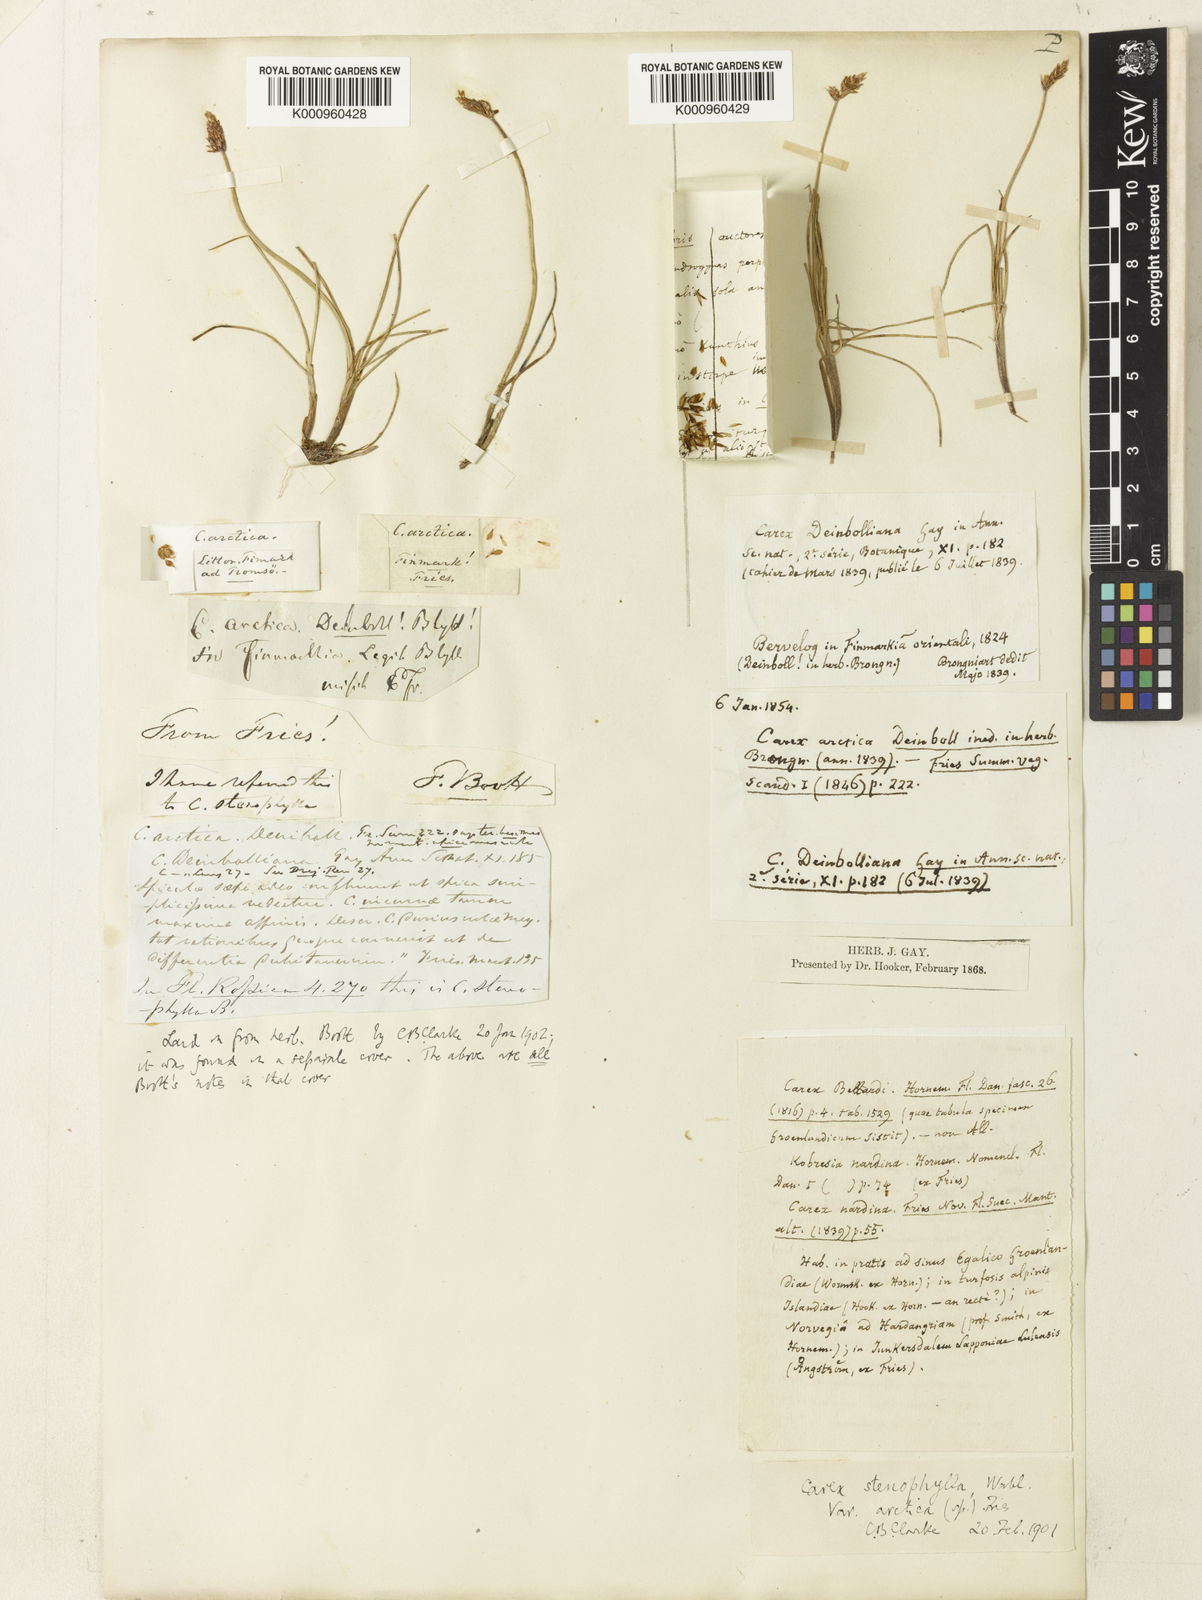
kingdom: Plantae
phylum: Tracheophyta
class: Liliopsida
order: Poales
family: Cyperaceae
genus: Carex
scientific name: Carex dioica
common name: Dioecious sedge
